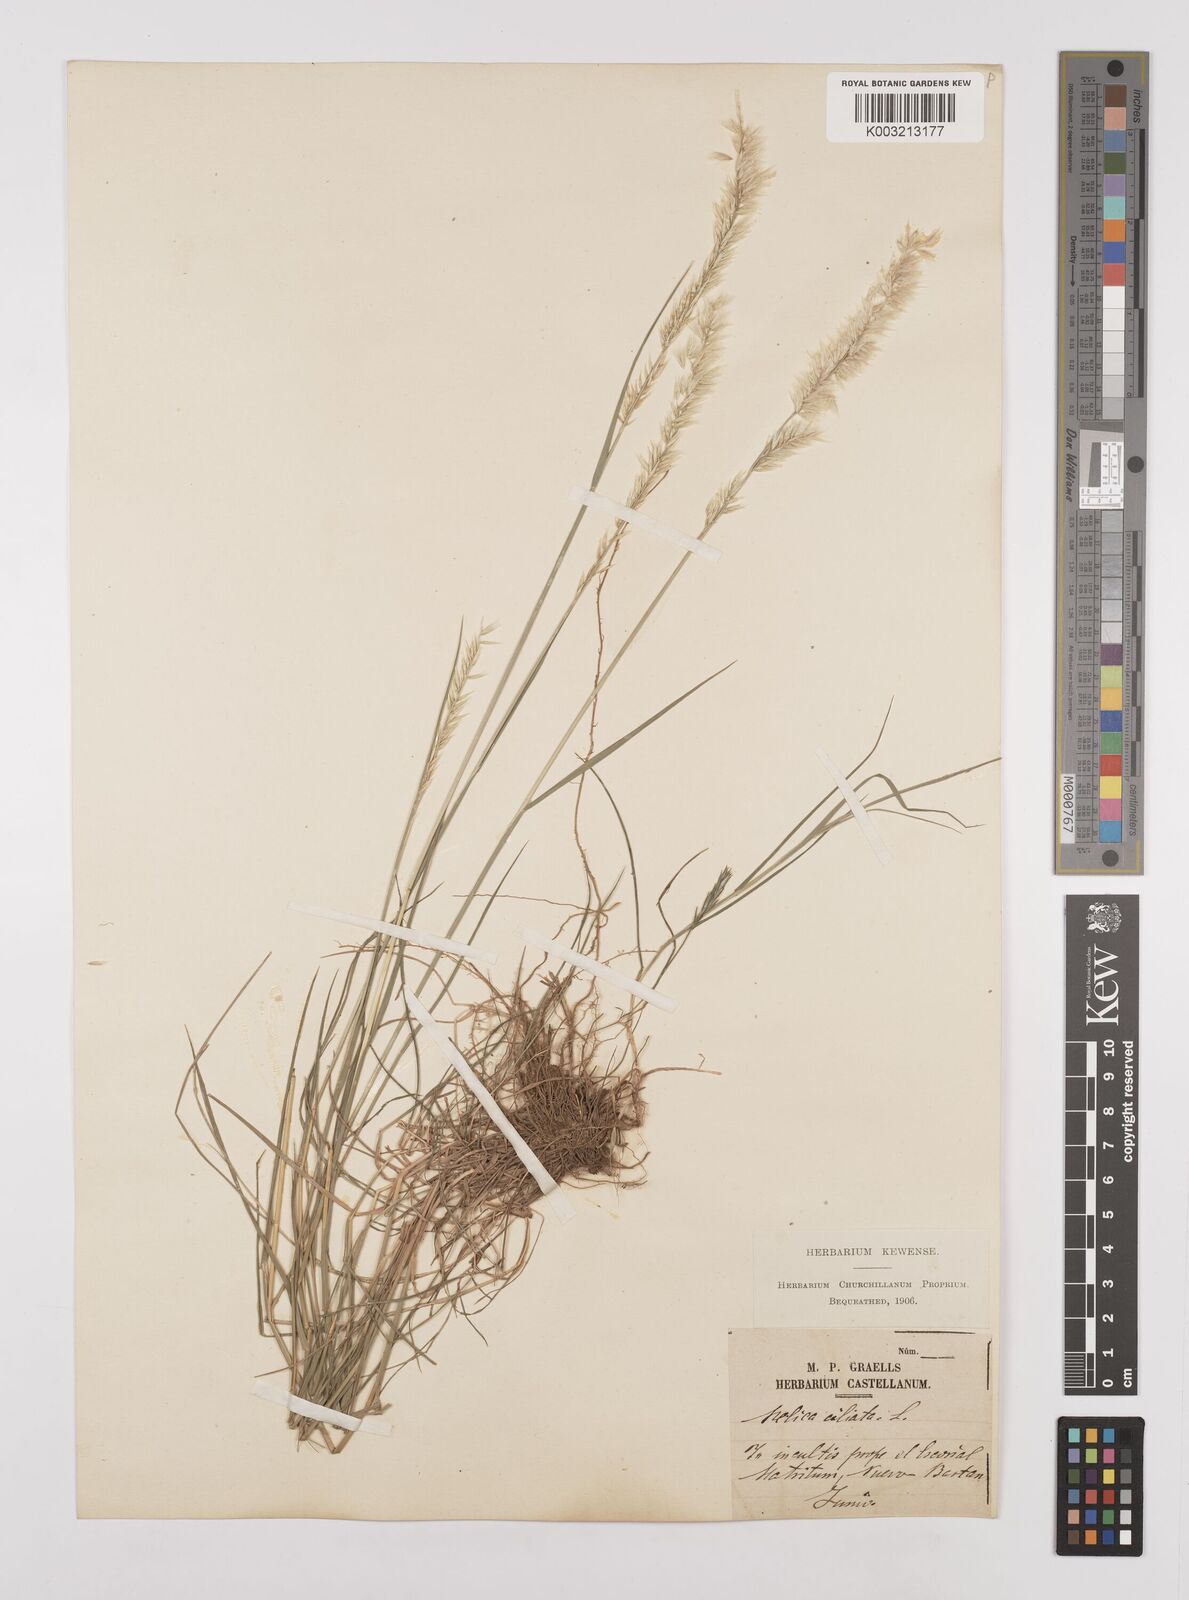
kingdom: Plantae
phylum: Tracheophyta
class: Liliopsida
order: Poales
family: Poaceae
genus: Melica
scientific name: Melica ciliata
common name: Hairy melicgrass
